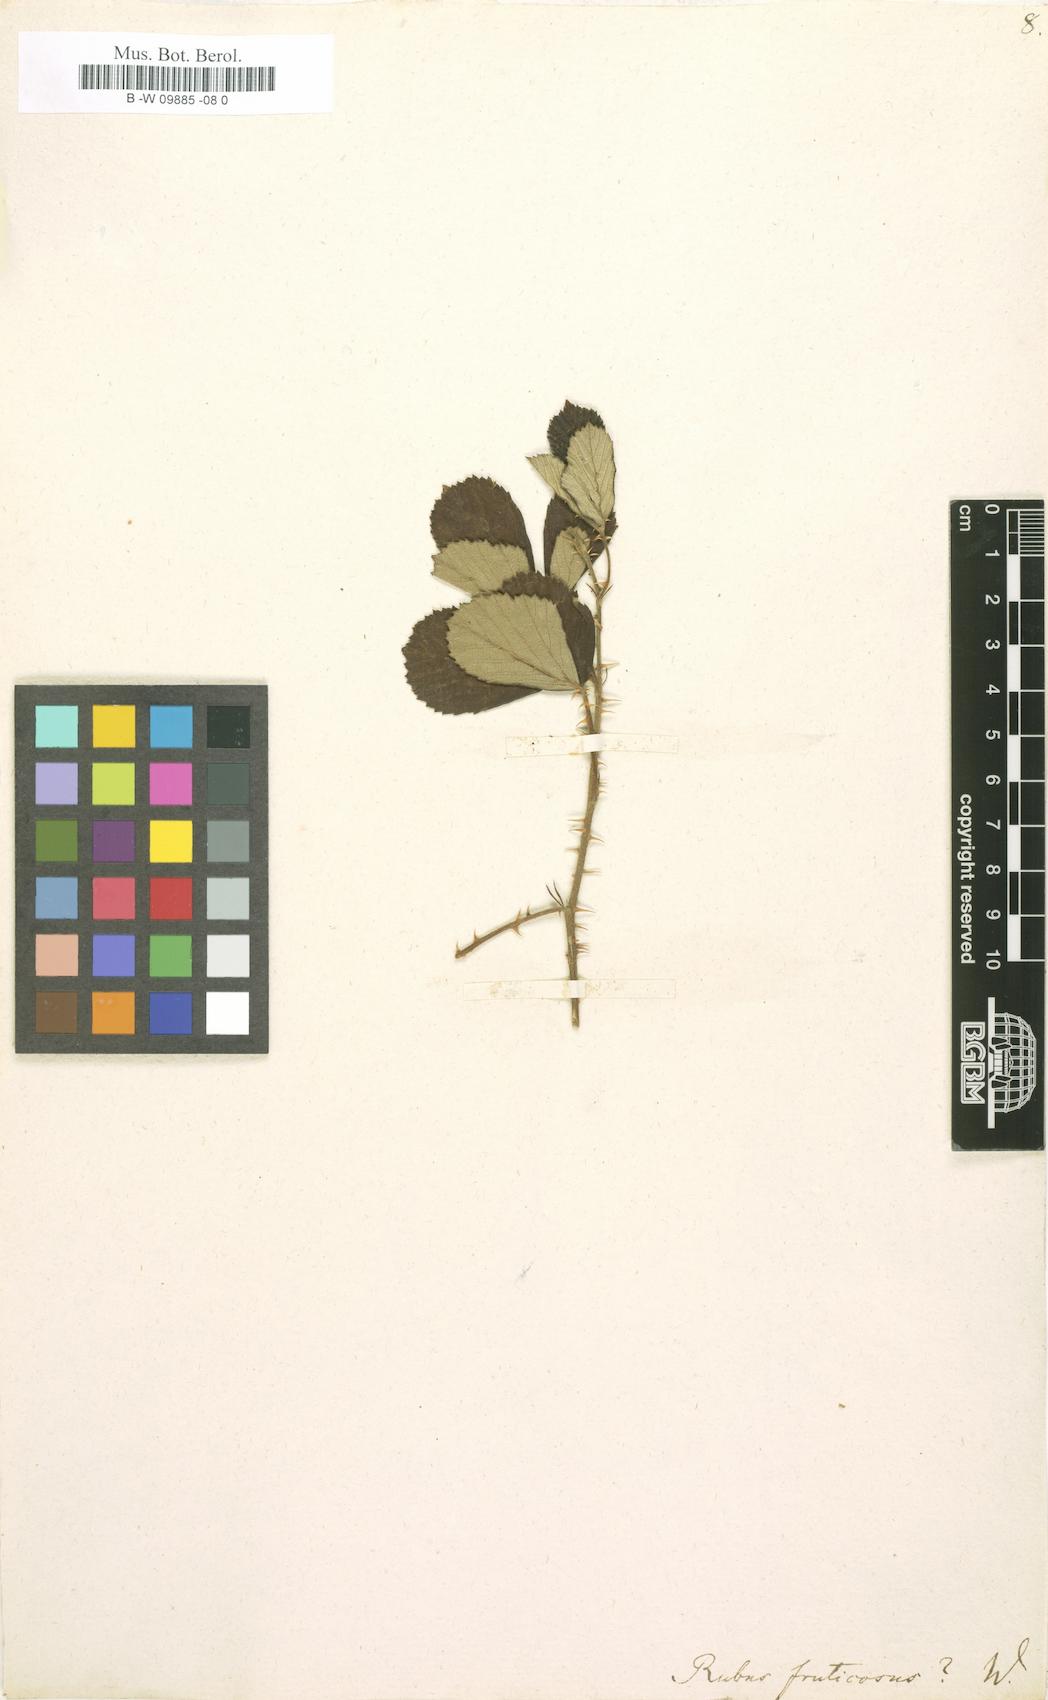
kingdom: Plantae
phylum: Tracheophyta
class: Magnoliopsida
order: Rosales
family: Rosaceae
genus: Rubus
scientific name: Rubus fruticosus
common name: Blackberry, bramble
